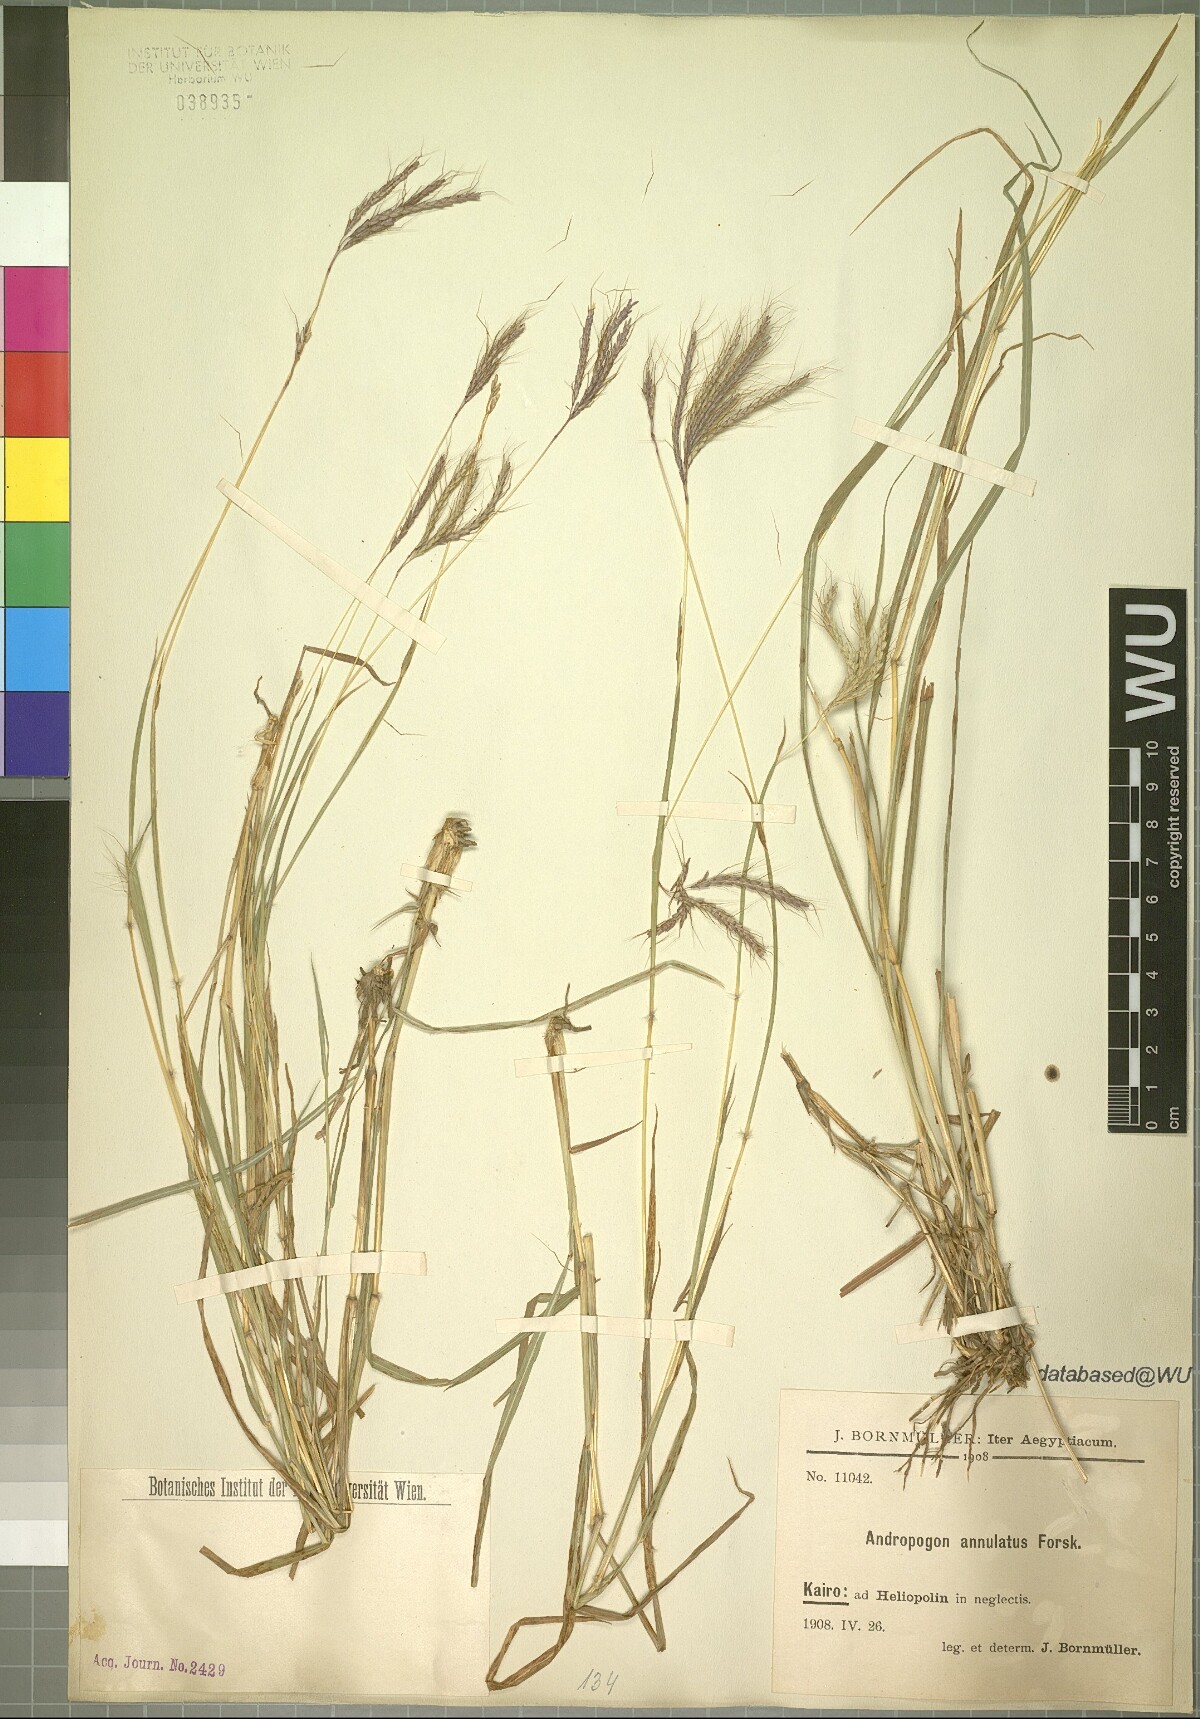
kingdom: Plantae
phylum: Tracheophyta
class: Liliopsida
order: Poales
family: Poaceae
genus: Dichanthium
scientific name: Dichanthium annulatum
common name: Kleberg's bluestem
